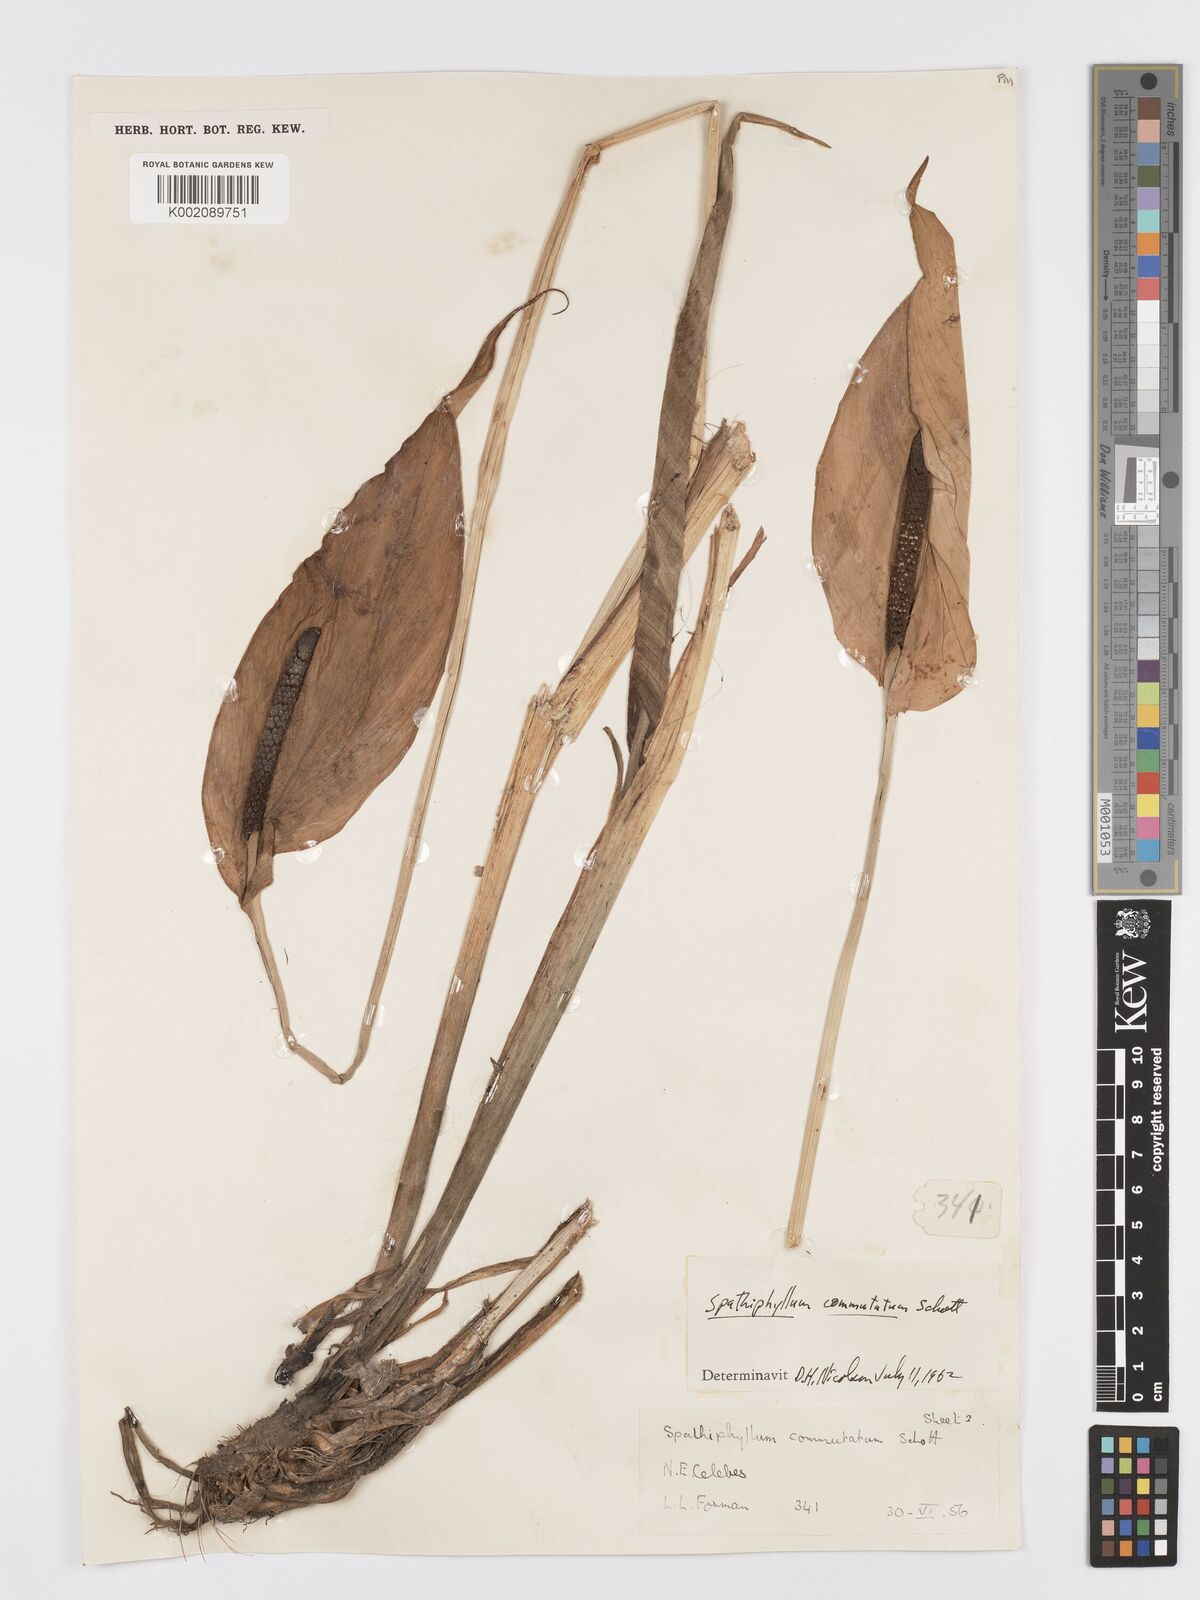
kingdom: Plantae
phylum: Tracheophyta
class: Liliopsida
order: Alismatales
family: Araceae
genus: Spathiphyllum
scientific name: Spathiphyllum commutatum
